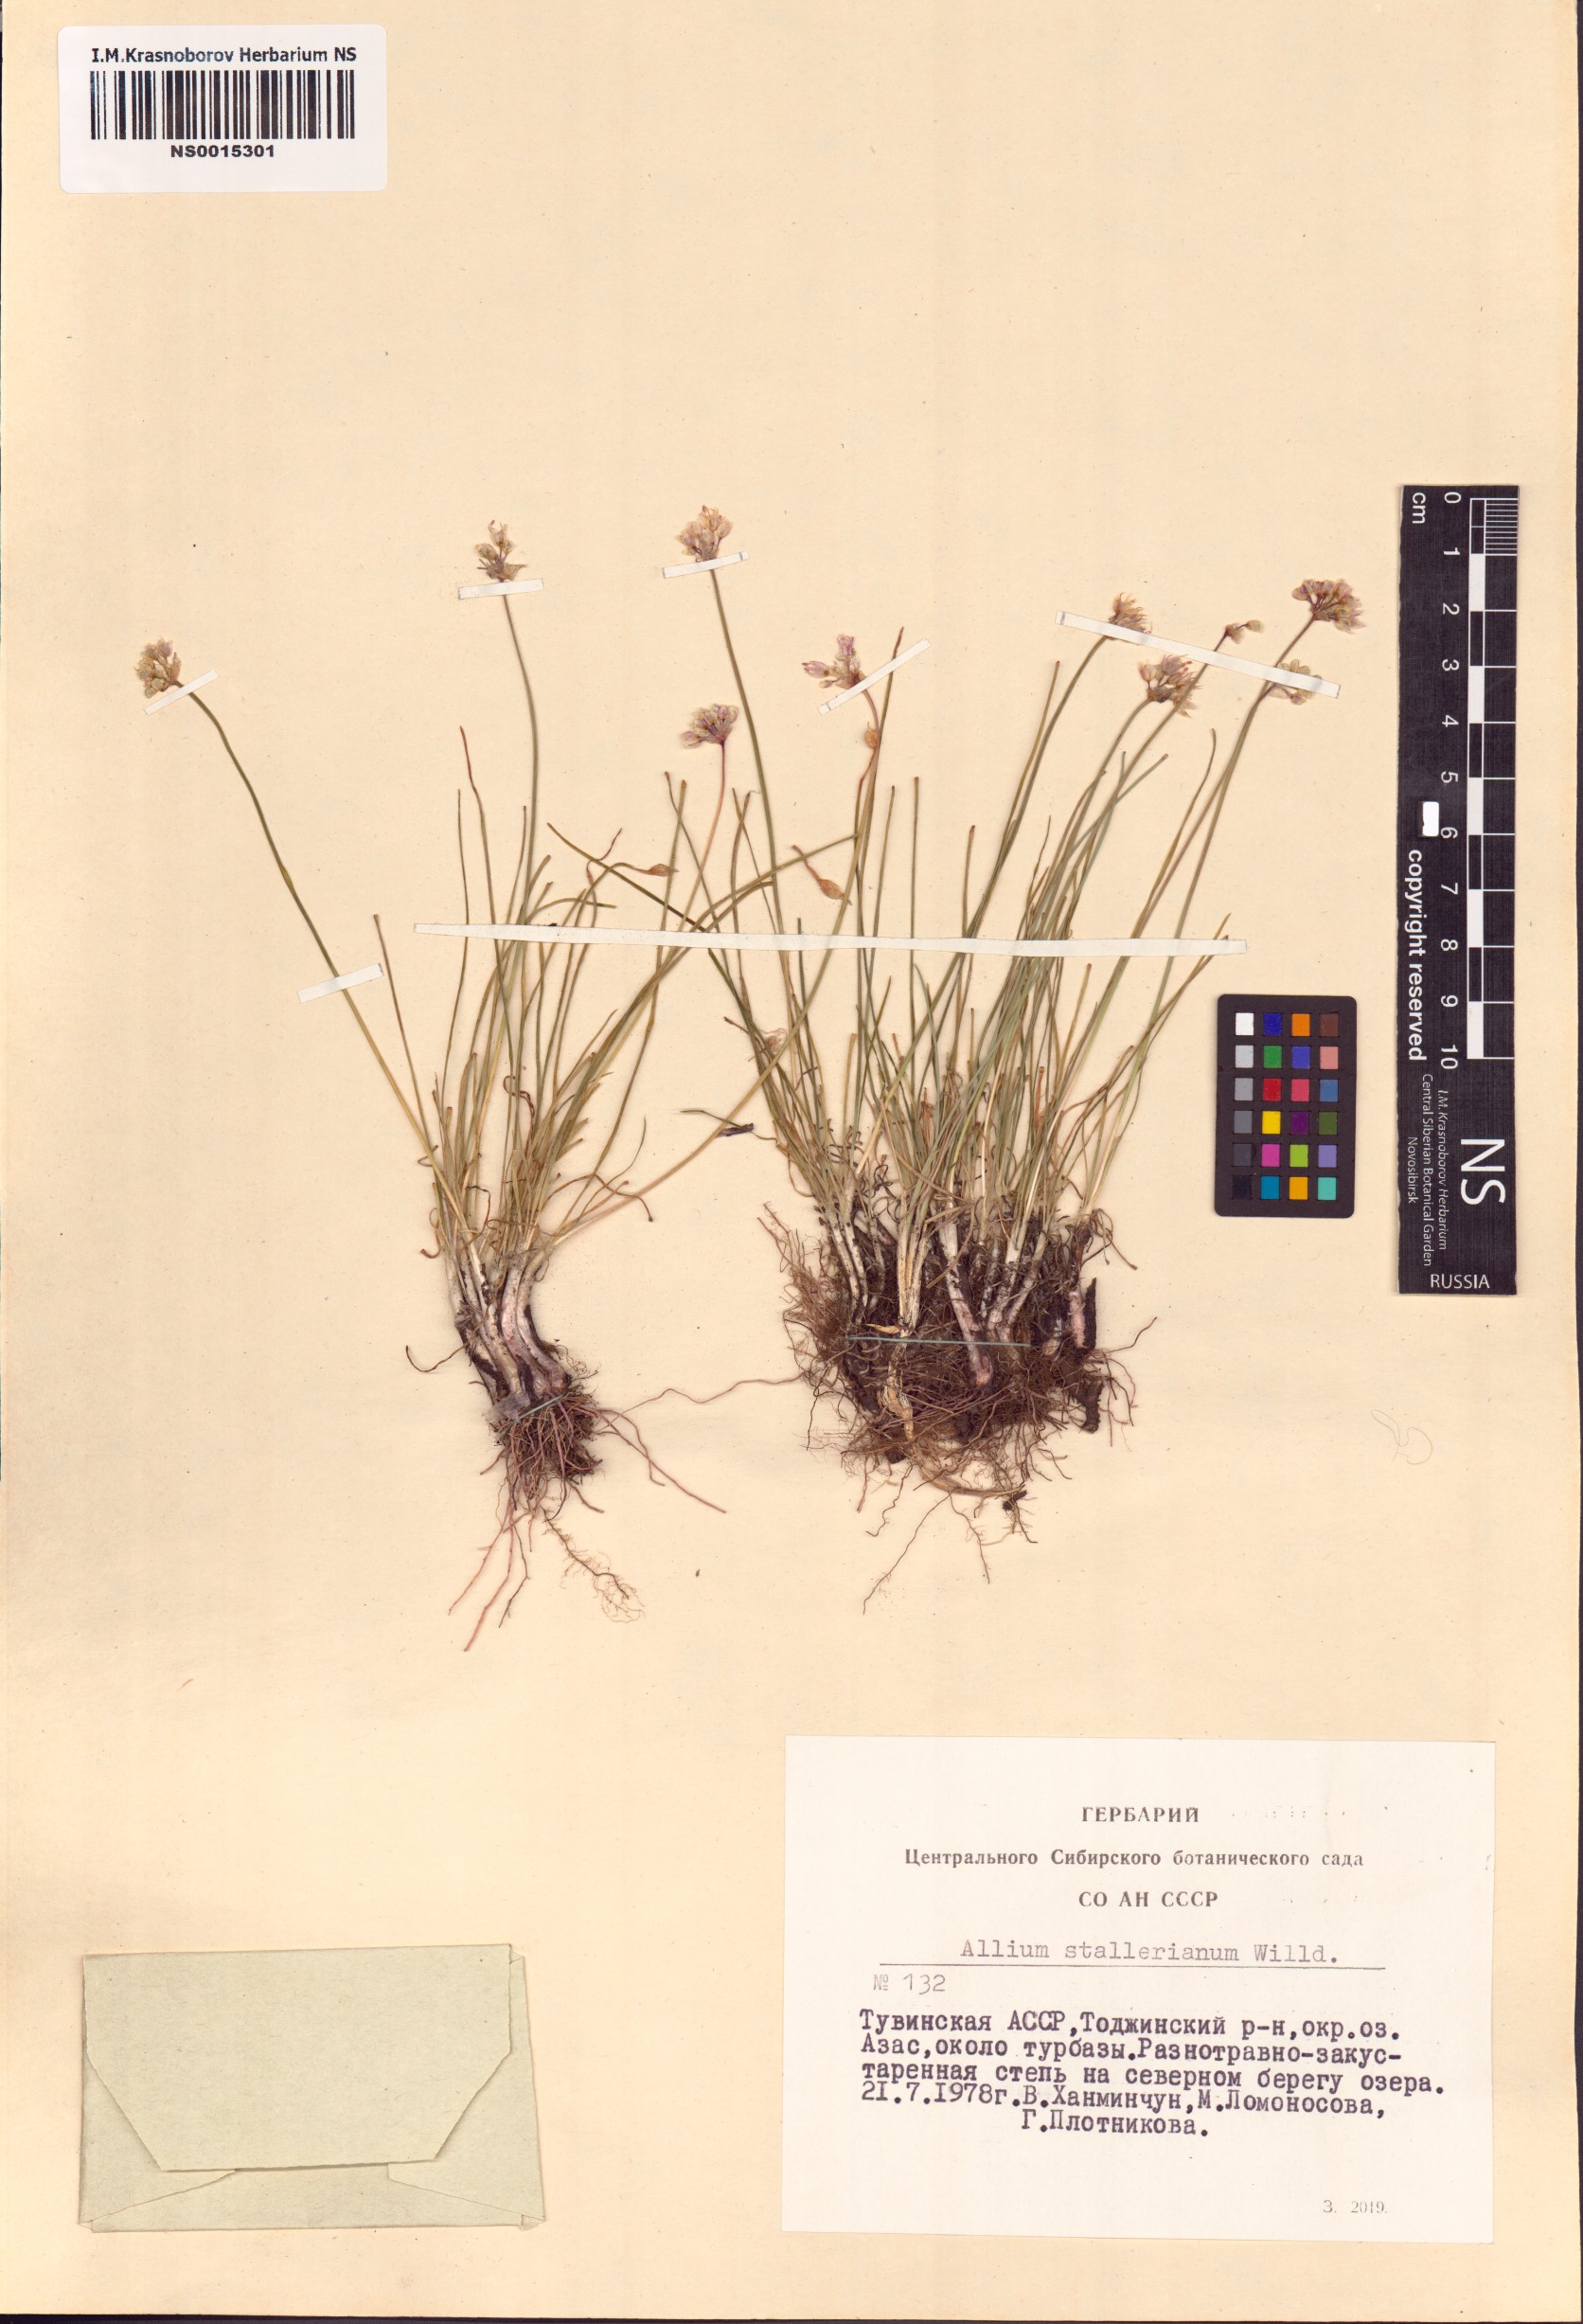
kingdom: Plantae
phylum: Tracheophyta
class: Liliopsida
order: Asparagales
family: Amaryllidaceae
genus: Allium
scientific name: Allium stellerianum
